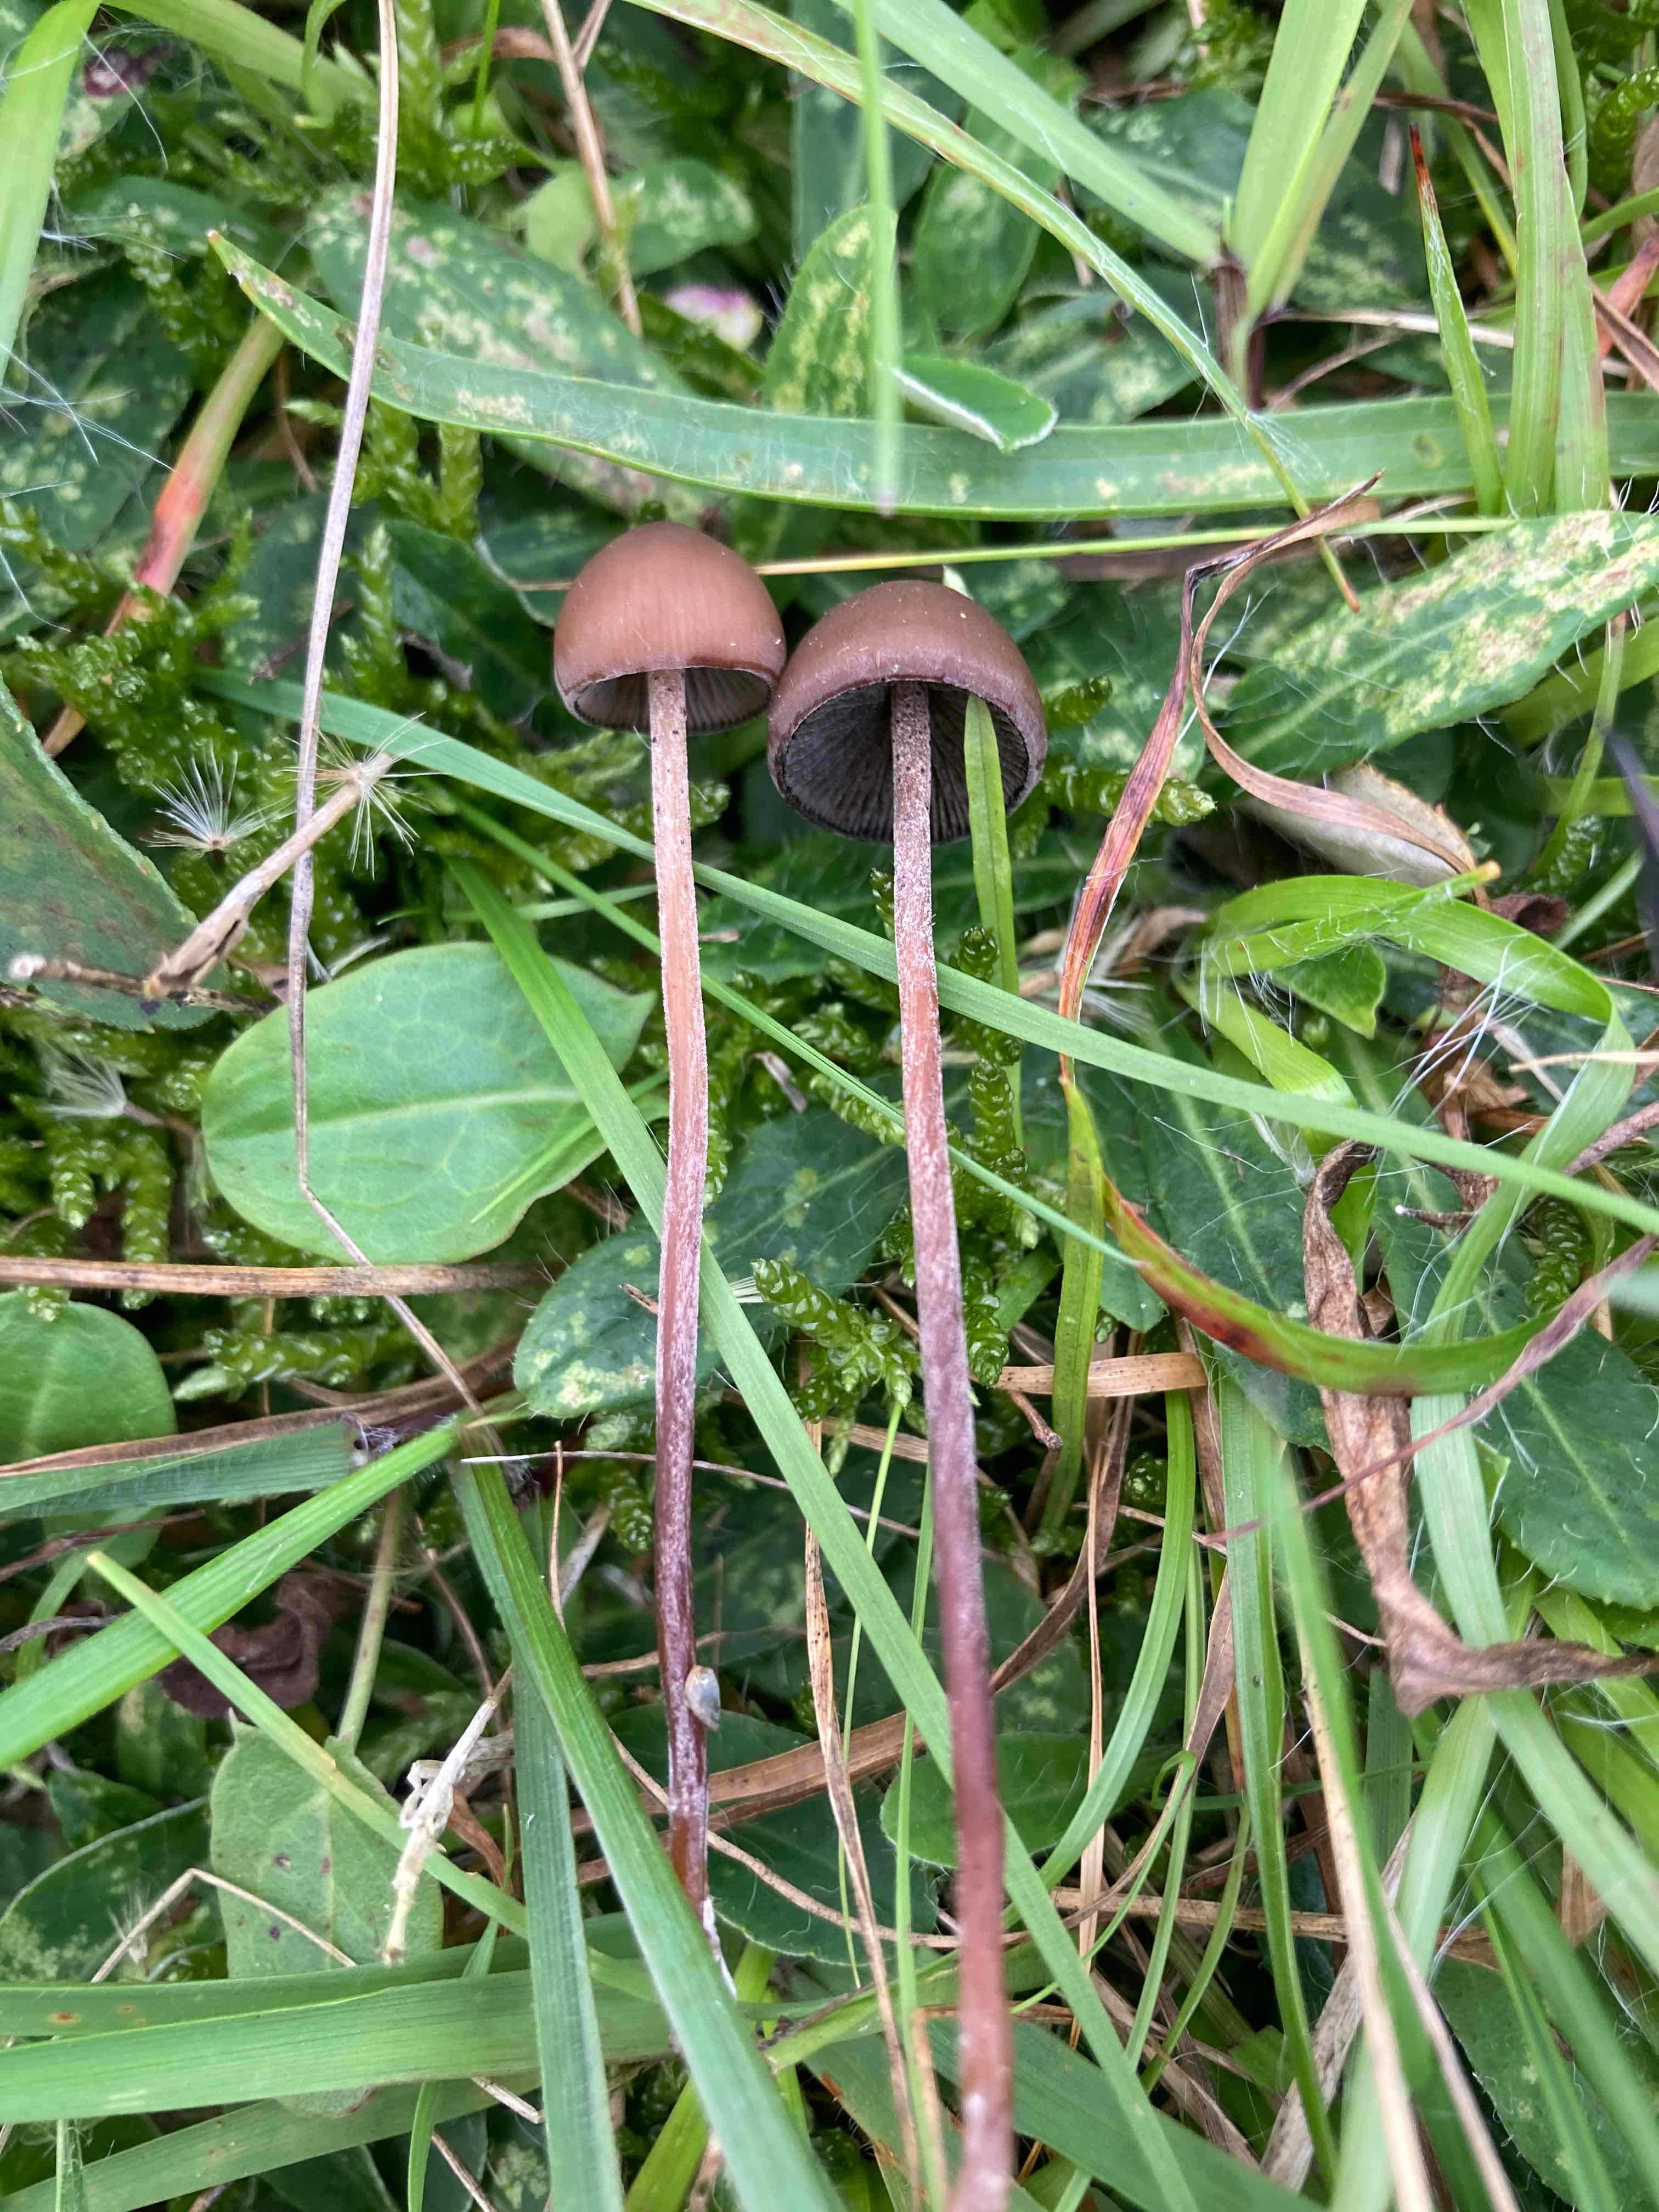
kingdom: Fungi
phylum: Basidiomycota
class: Agaricomycetes
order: Agaricales
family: Bolbitiaceae
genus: Panaeolus
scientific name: Panaeolus acuminatus
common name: høj glanshat
